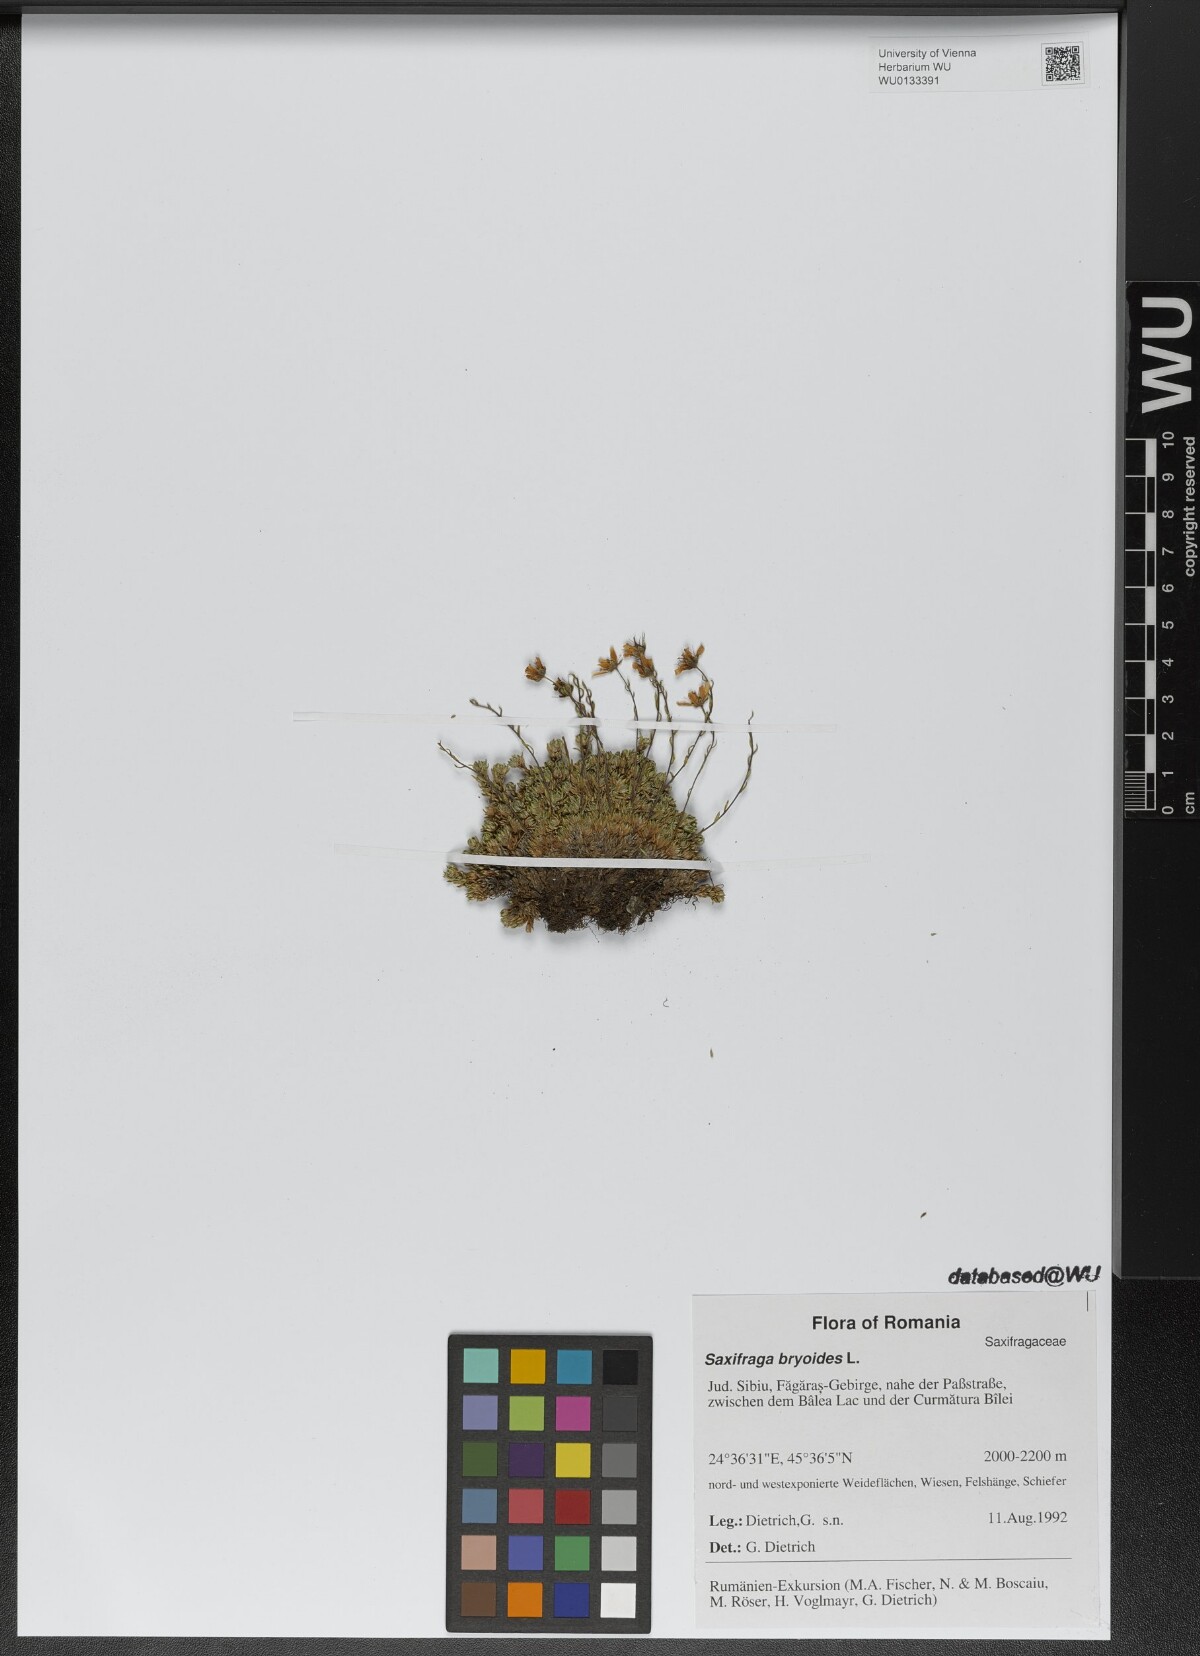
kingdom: Plantae
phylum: Tracheophyta
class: Magnoliopsida
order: Saxifragales
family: Saxifragaceae
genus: Saxifraga
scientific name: Saxifraga bryoides
